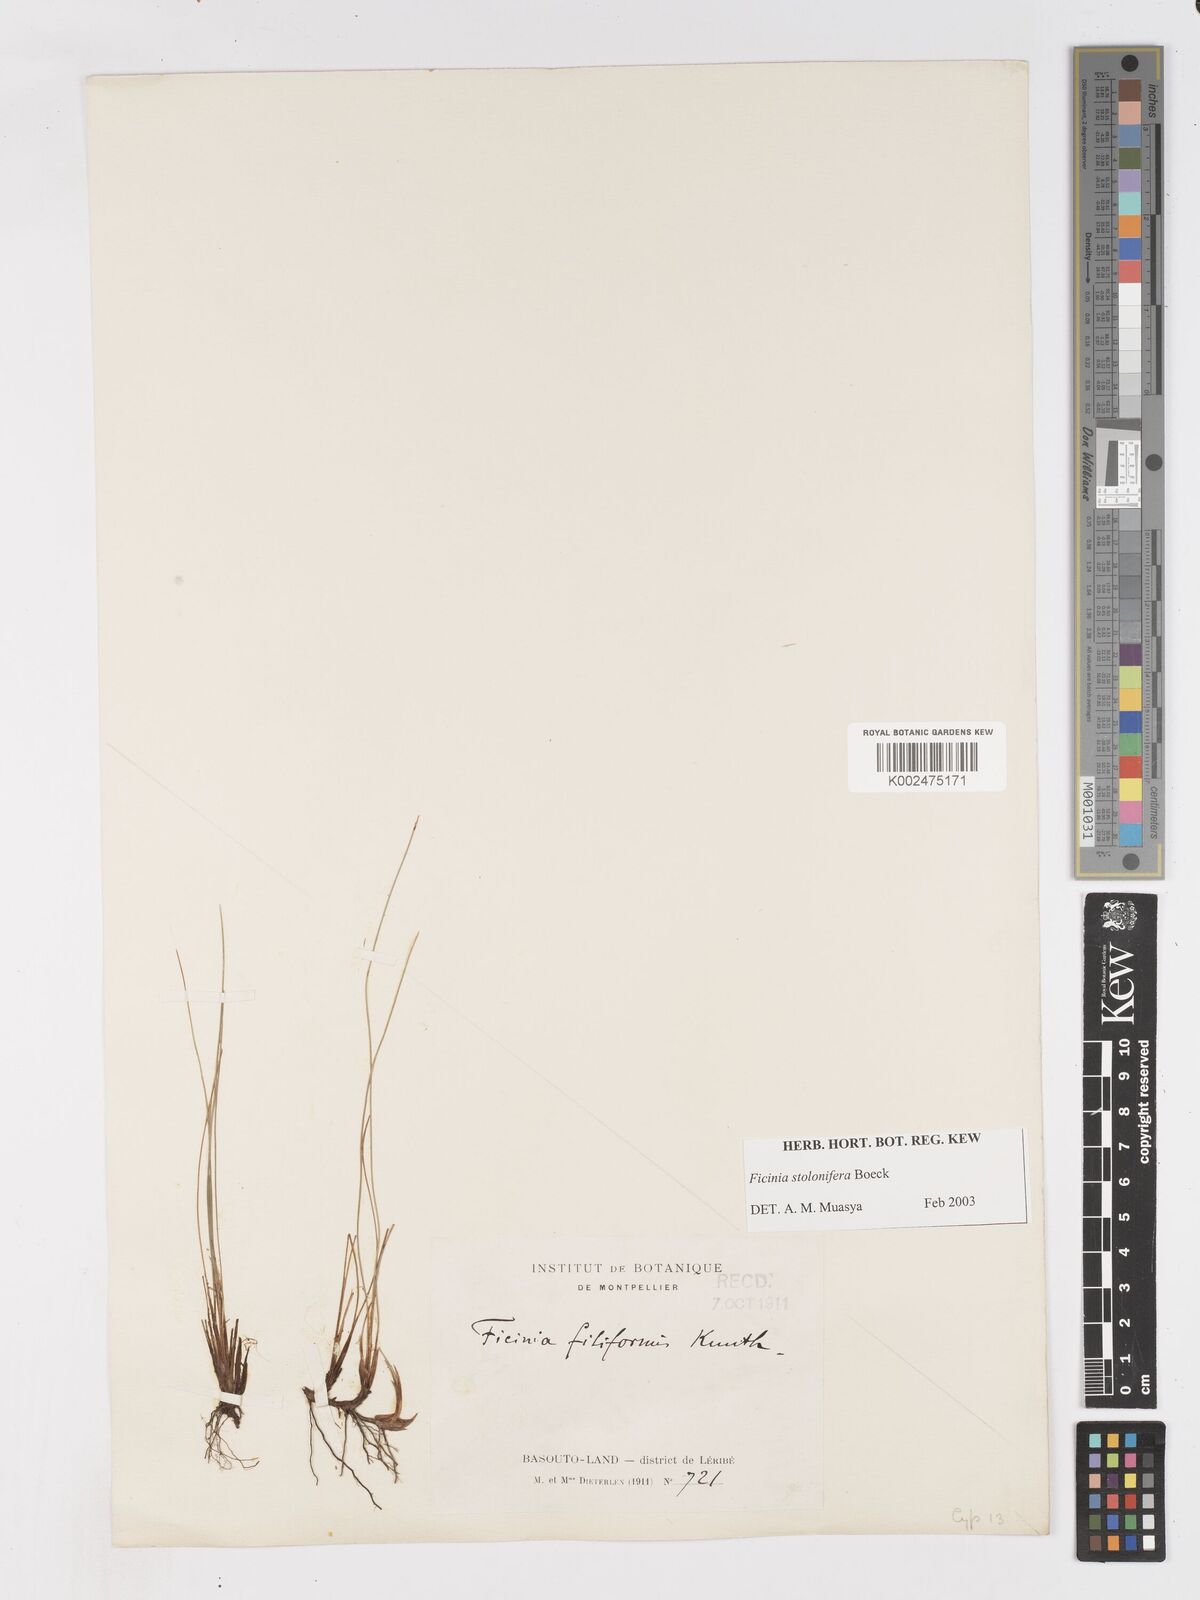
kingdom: Plantae
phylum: Tracheophyta
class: Liliopsida
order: Poales
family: Cyperaceae
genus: Ficinia
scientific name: Ficinia stolonifera
